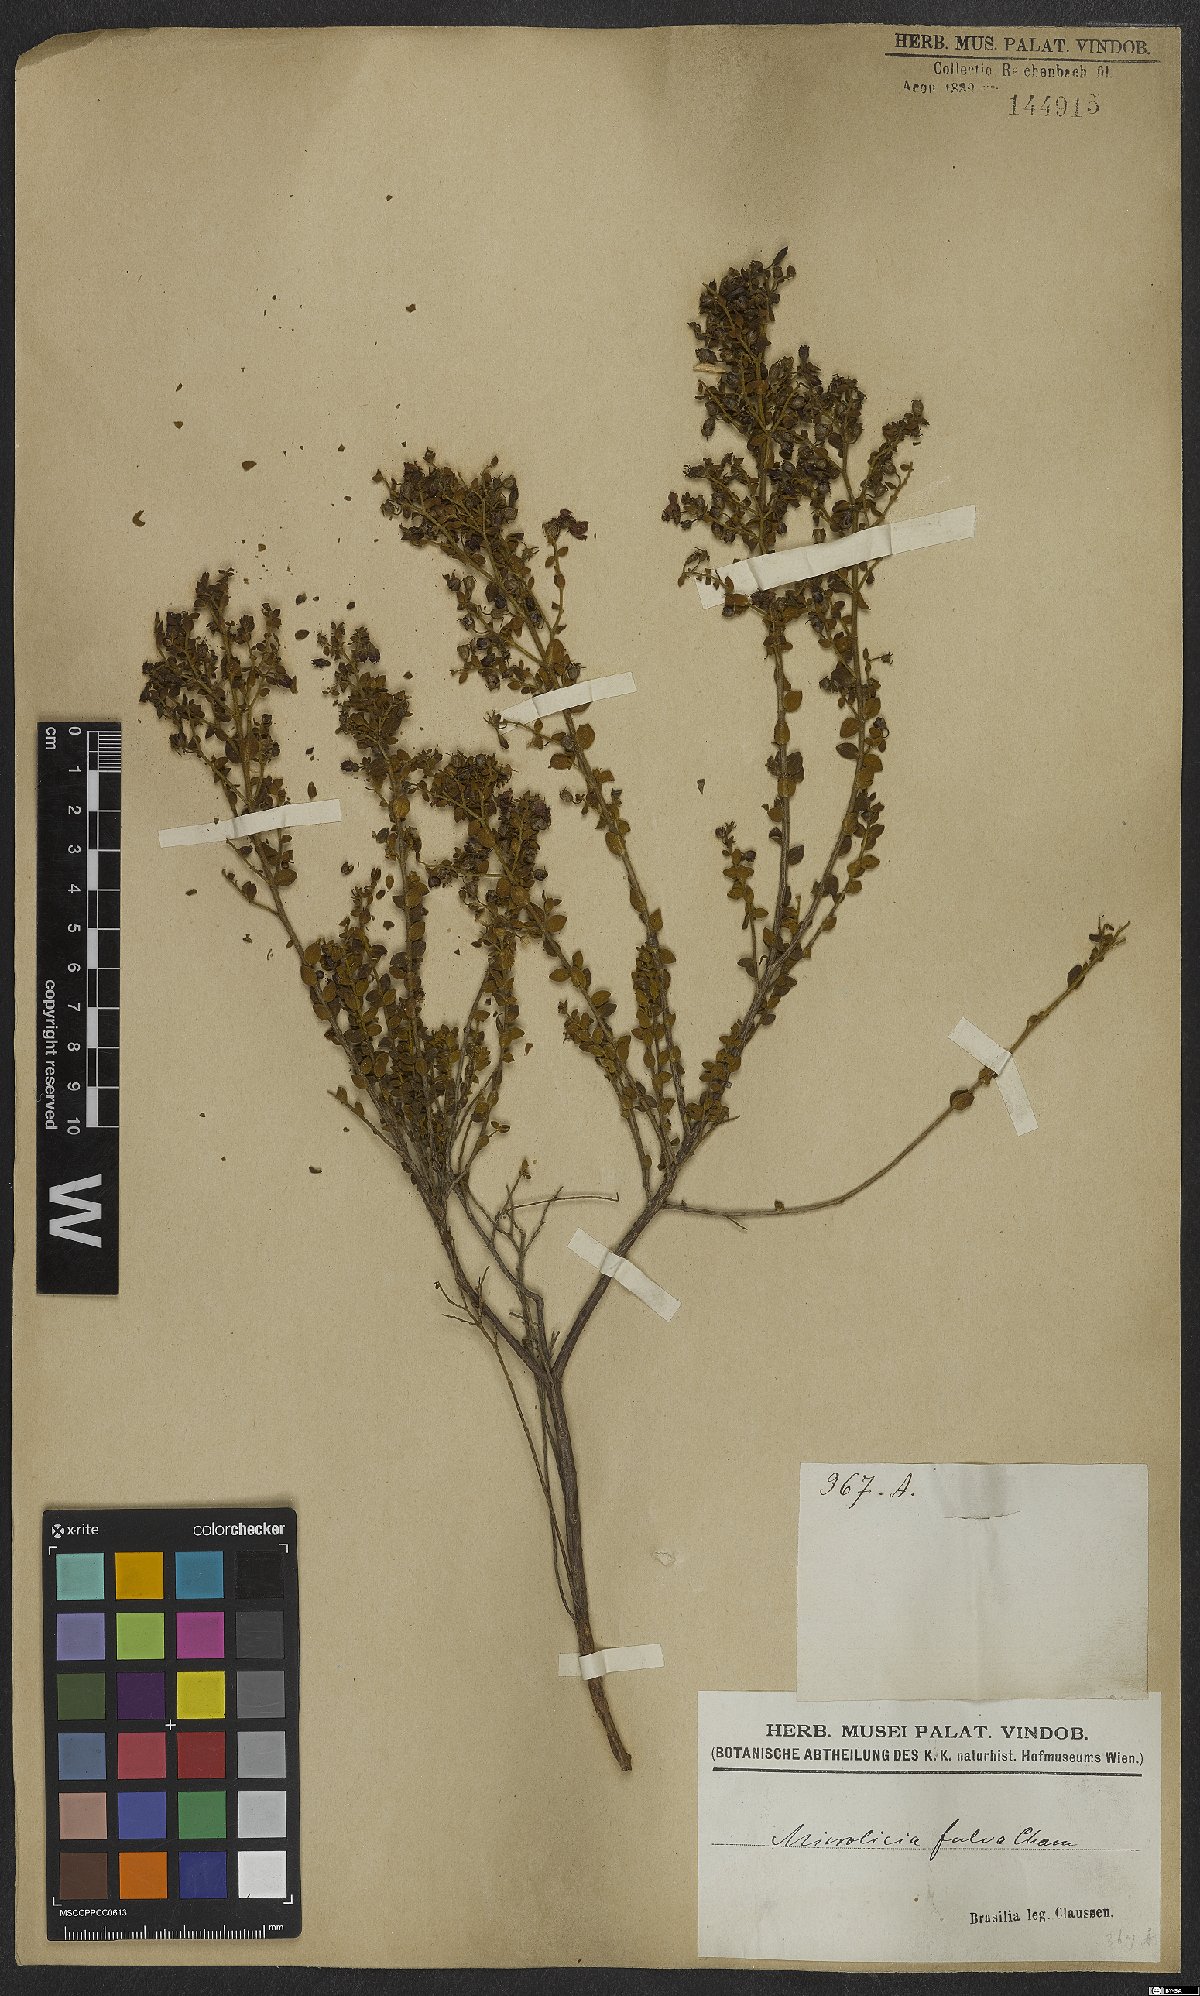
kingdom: Plantae
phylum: Tracheophyta
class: Magnoliopsida
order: Myrtales
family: Melastomataceae
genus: Microlicia
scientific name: Microlicia fulva
